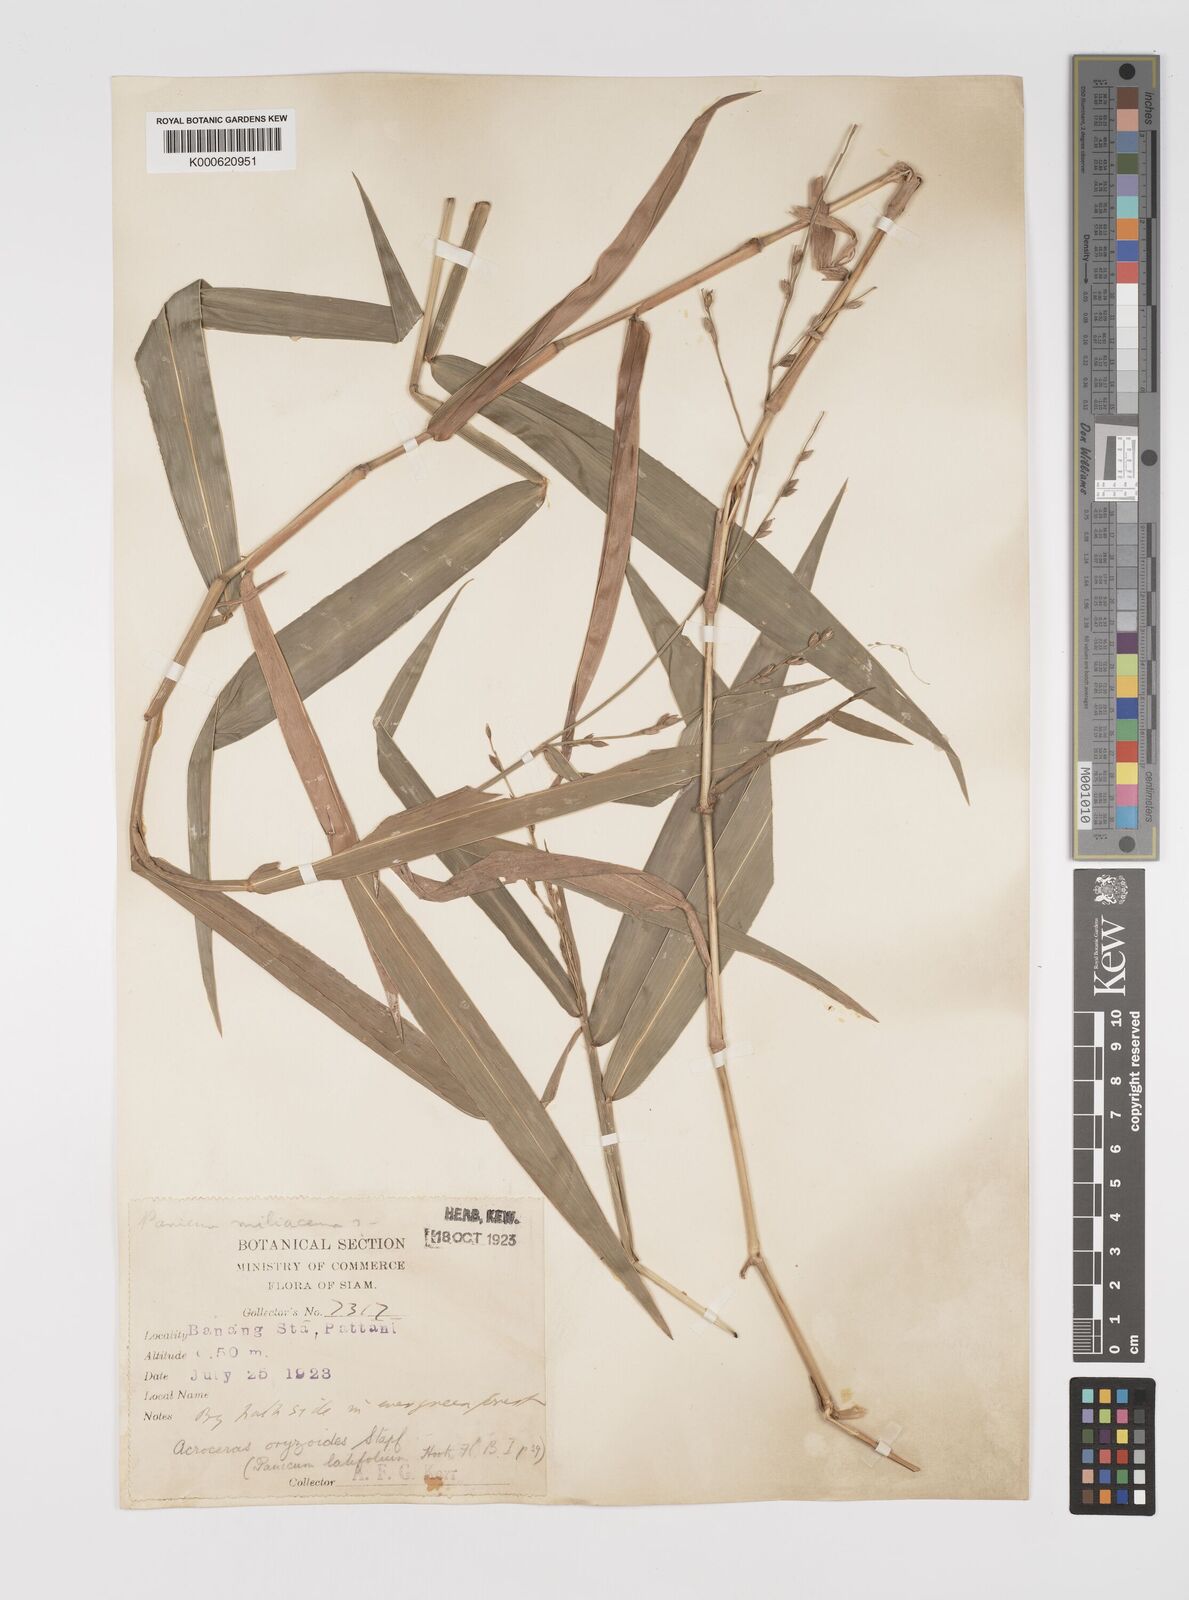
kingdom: Plantae
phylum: Tracheophyta
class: Liliopsida
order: Poales
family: Poaceae
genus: Acroceras
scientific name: Acroceras
